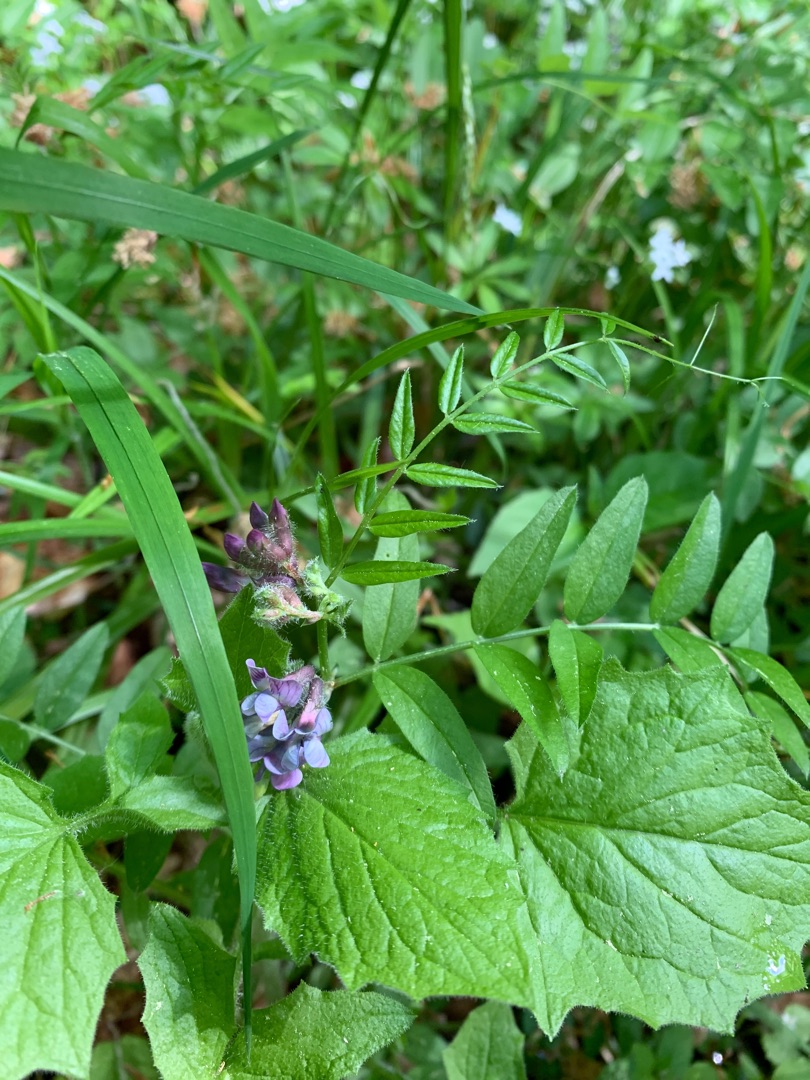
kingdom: Plantae
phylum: Tracheophyta
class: Magnoliopsida
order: Fabales
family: Fabaceae
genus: Vicia
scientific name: Vicia sepium
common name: Gærde-vikke
